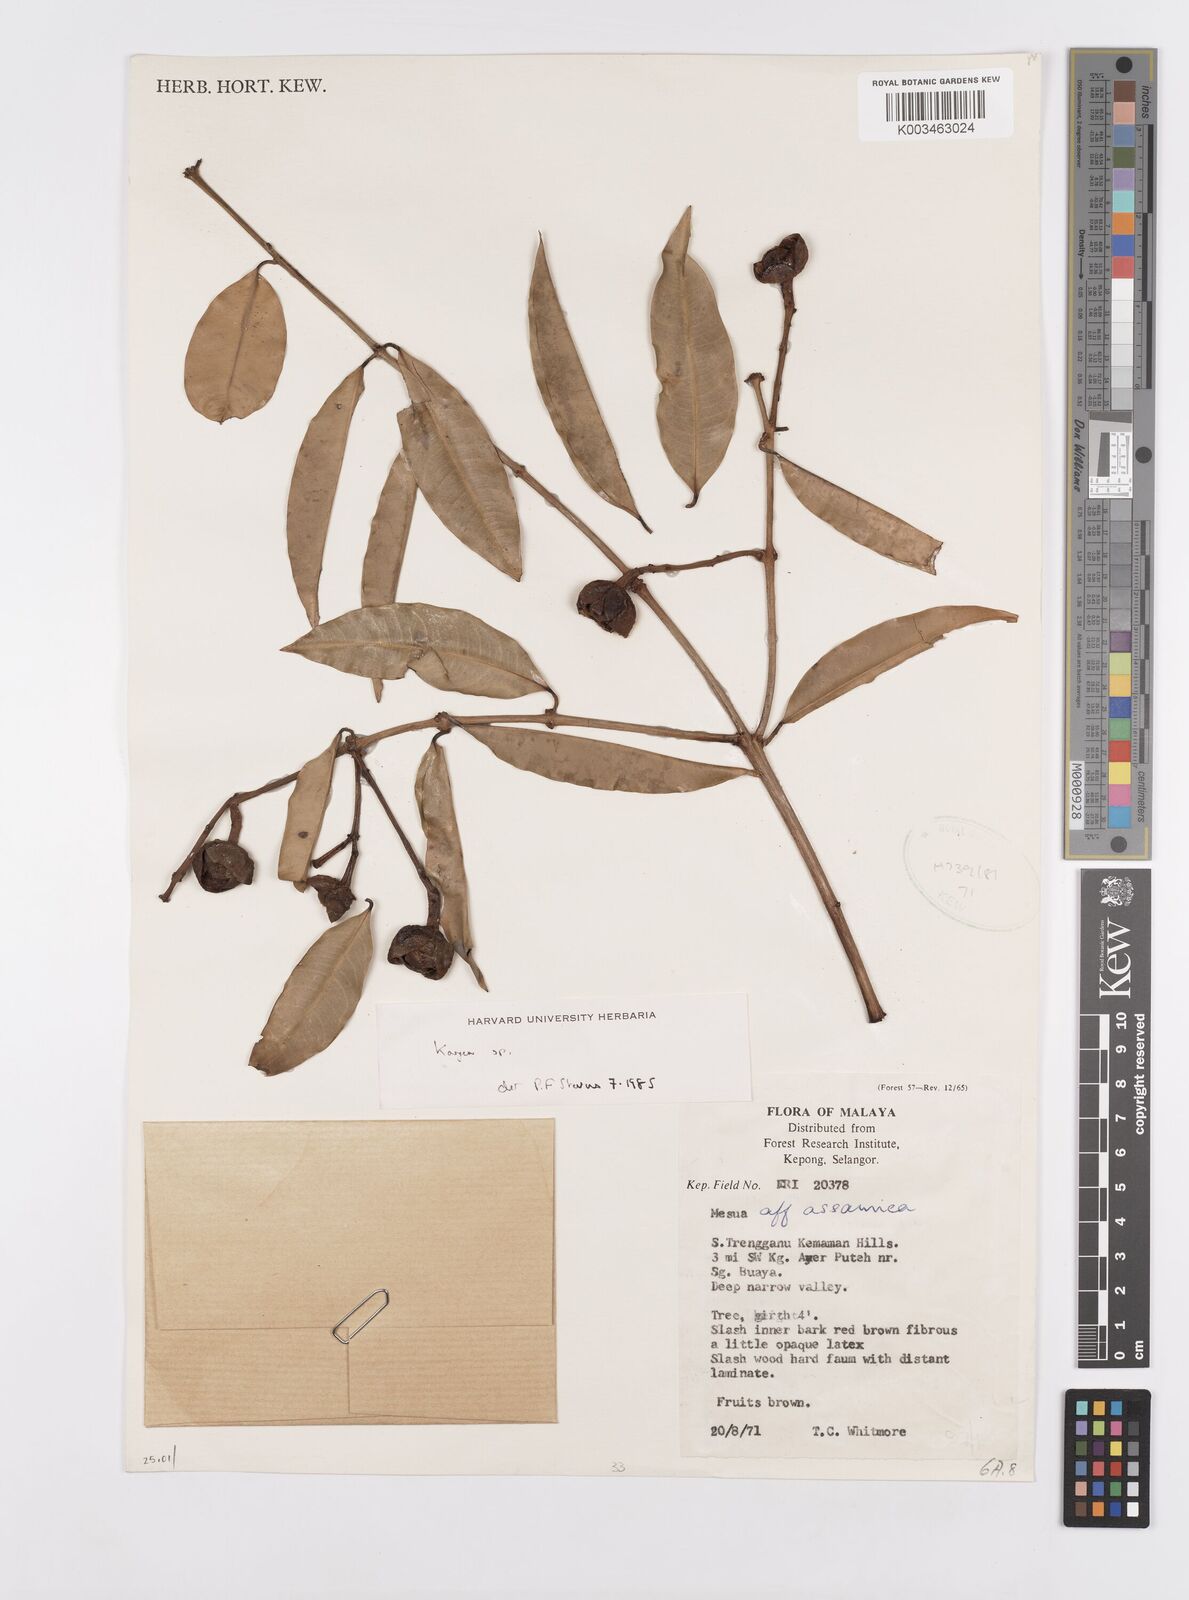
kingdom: Plantae
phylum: Tracheophyta
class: Magnoliopsida
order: Malpighiales
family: Calophyllaceae
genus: Kayea
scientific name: Kayea
